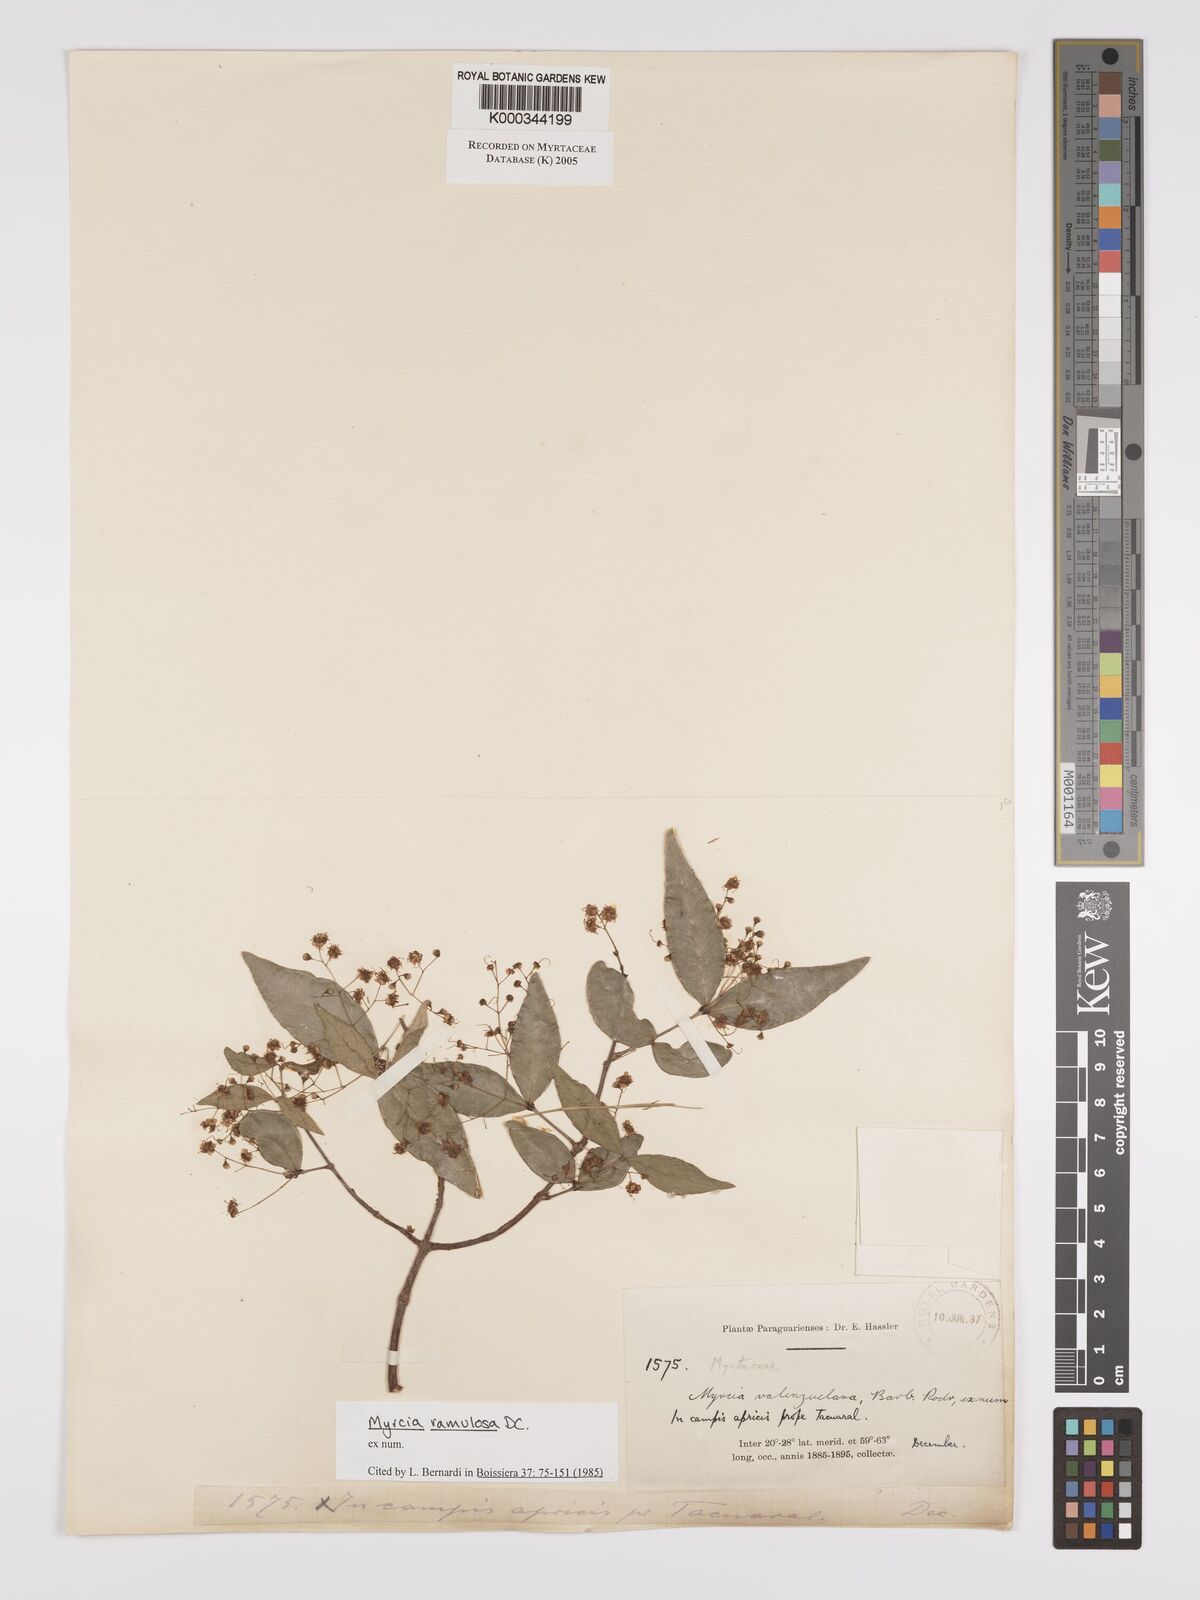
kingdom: Plantae
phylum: Tracheophyta
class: Magnoliopsida
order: Myrtales
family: Myrtaceae
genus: Myrcia
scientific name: Myrcia selloi
